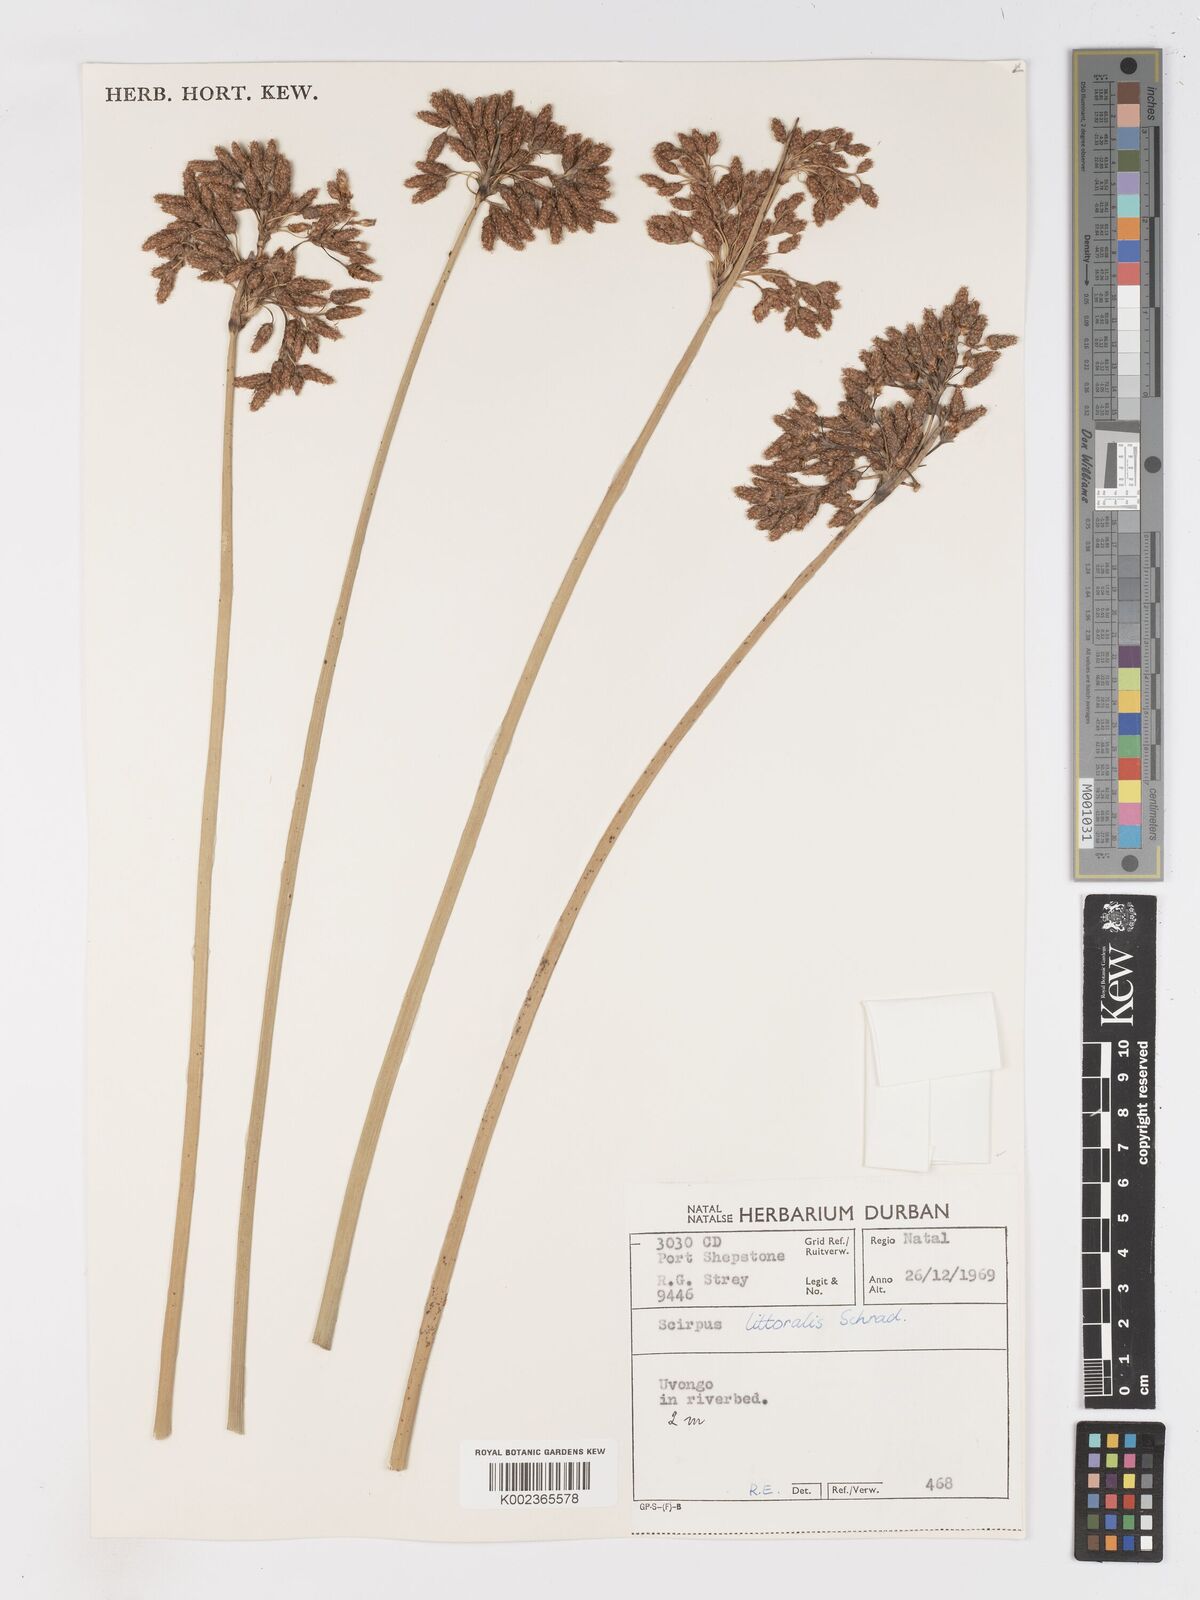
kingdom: Plantae
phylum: Tracheophyta
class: Liliopsida
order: Poales
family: Cyperaceae
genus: Schoenoplectus
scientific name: Schoenoplectus litoralis
